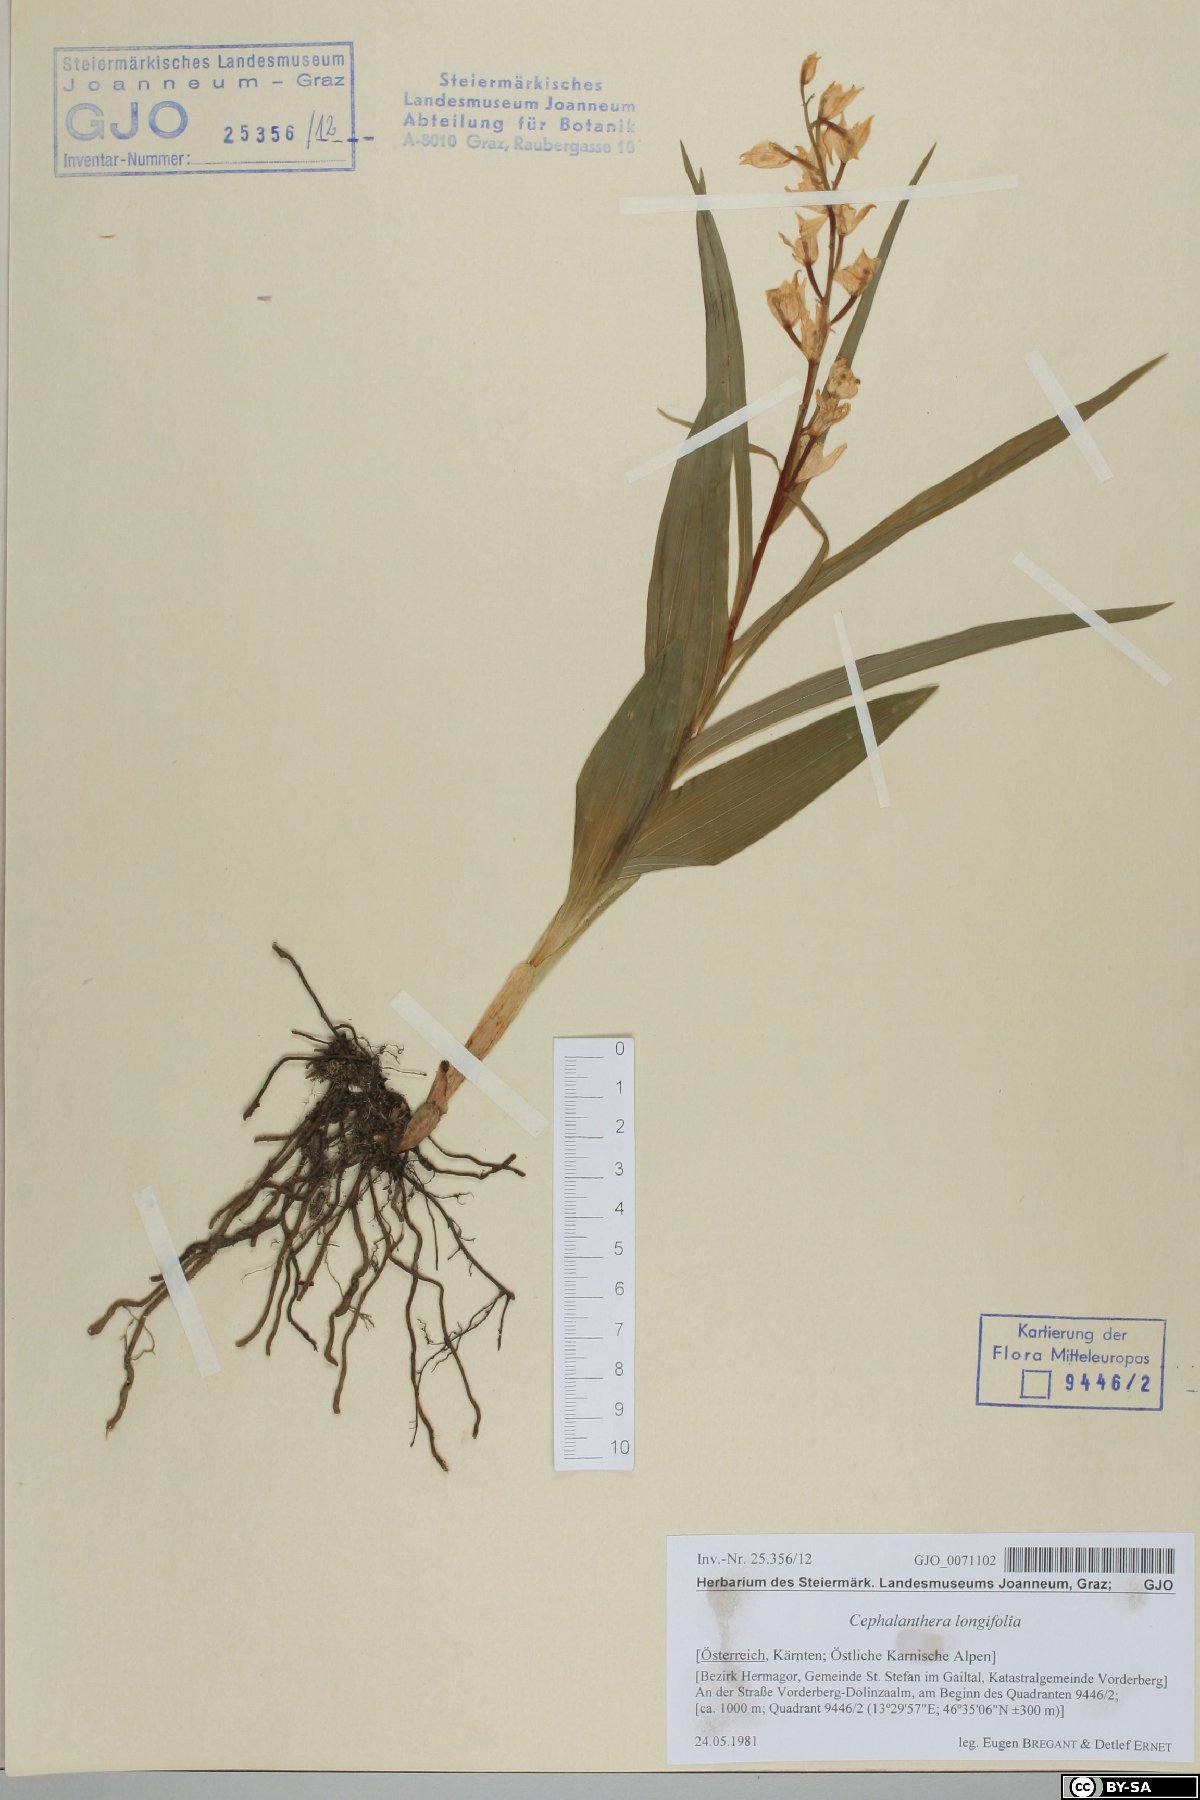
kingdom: Plantae
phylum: Tracheophyta
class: Liliopsida
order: Asparagales
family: Orchidaceae
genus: Cephalanthera
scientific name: Cephalanthera longifolia
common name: Narrow-leaved helleborine
